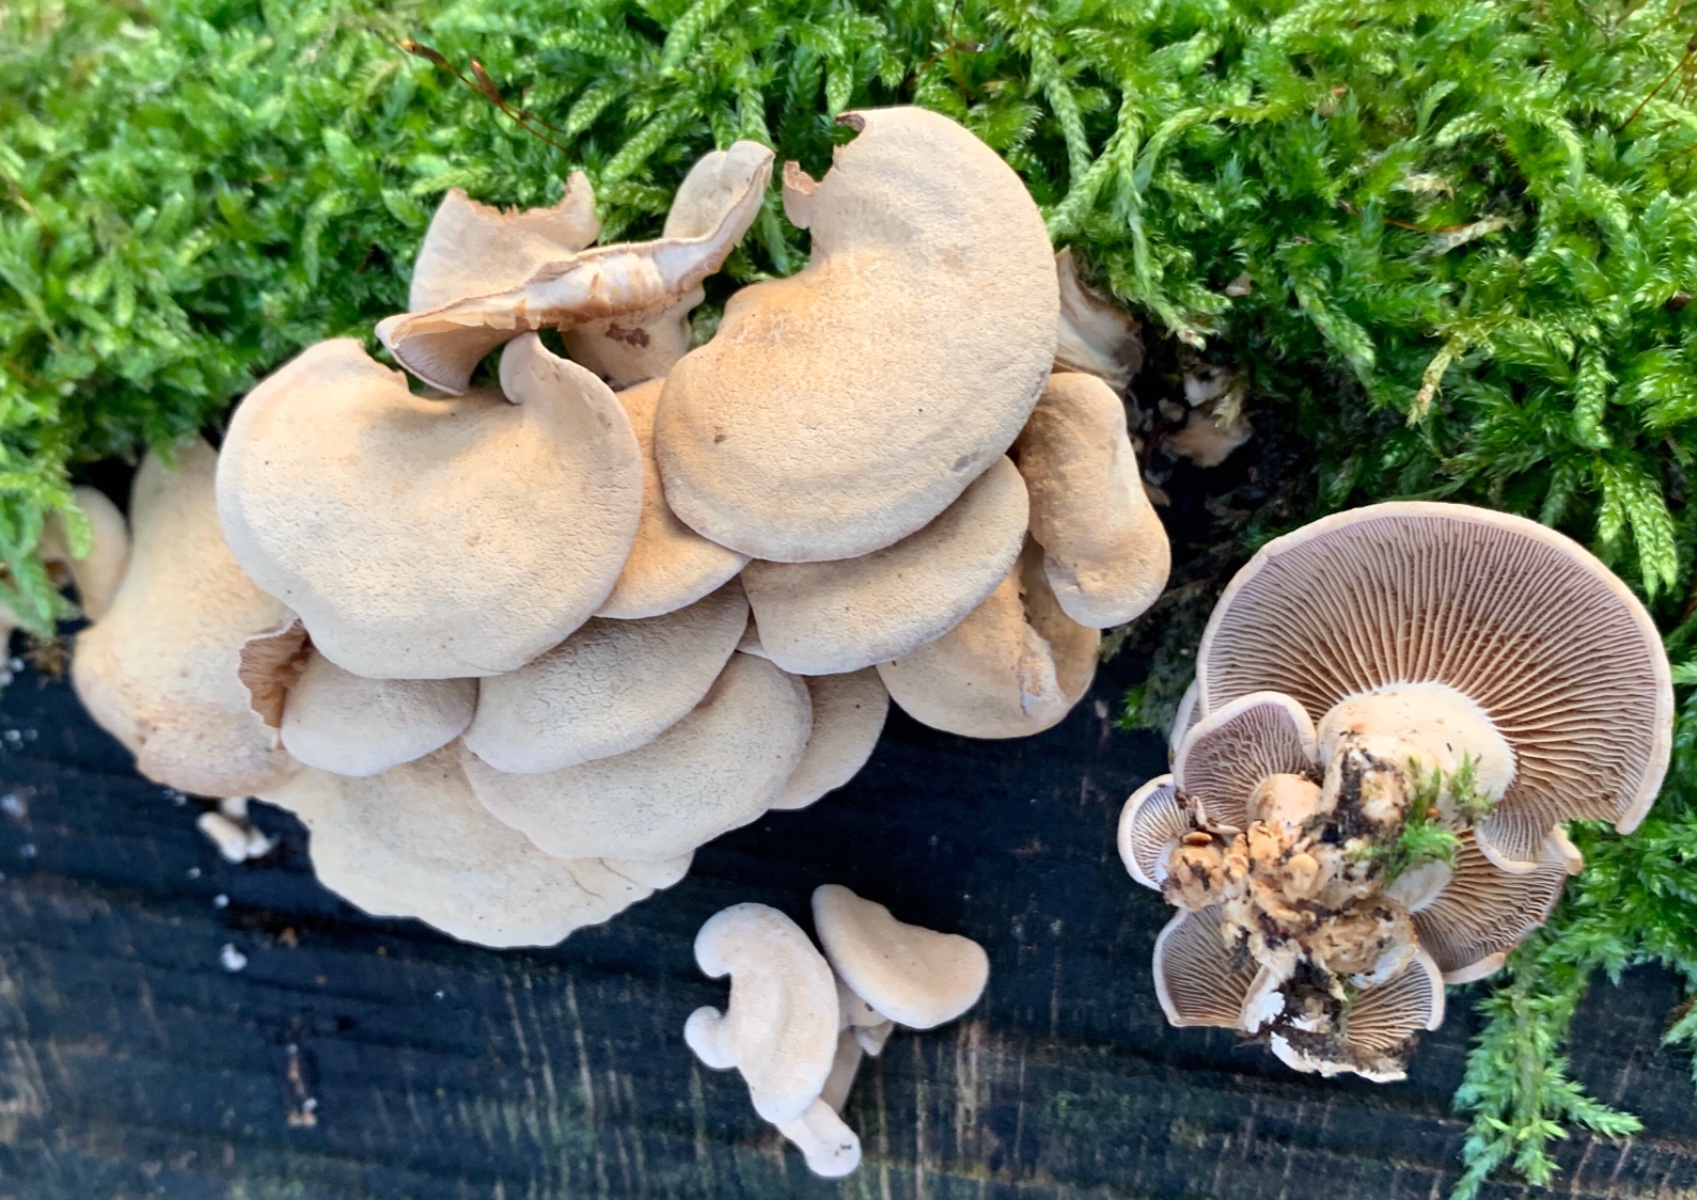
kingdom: Fungi
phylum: Basidiomycota
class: Agaricomycetes
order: Agaricales
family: Mycenaceae
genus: Panellus
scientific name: Panellus stipticus
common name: kliddet epaulethat
